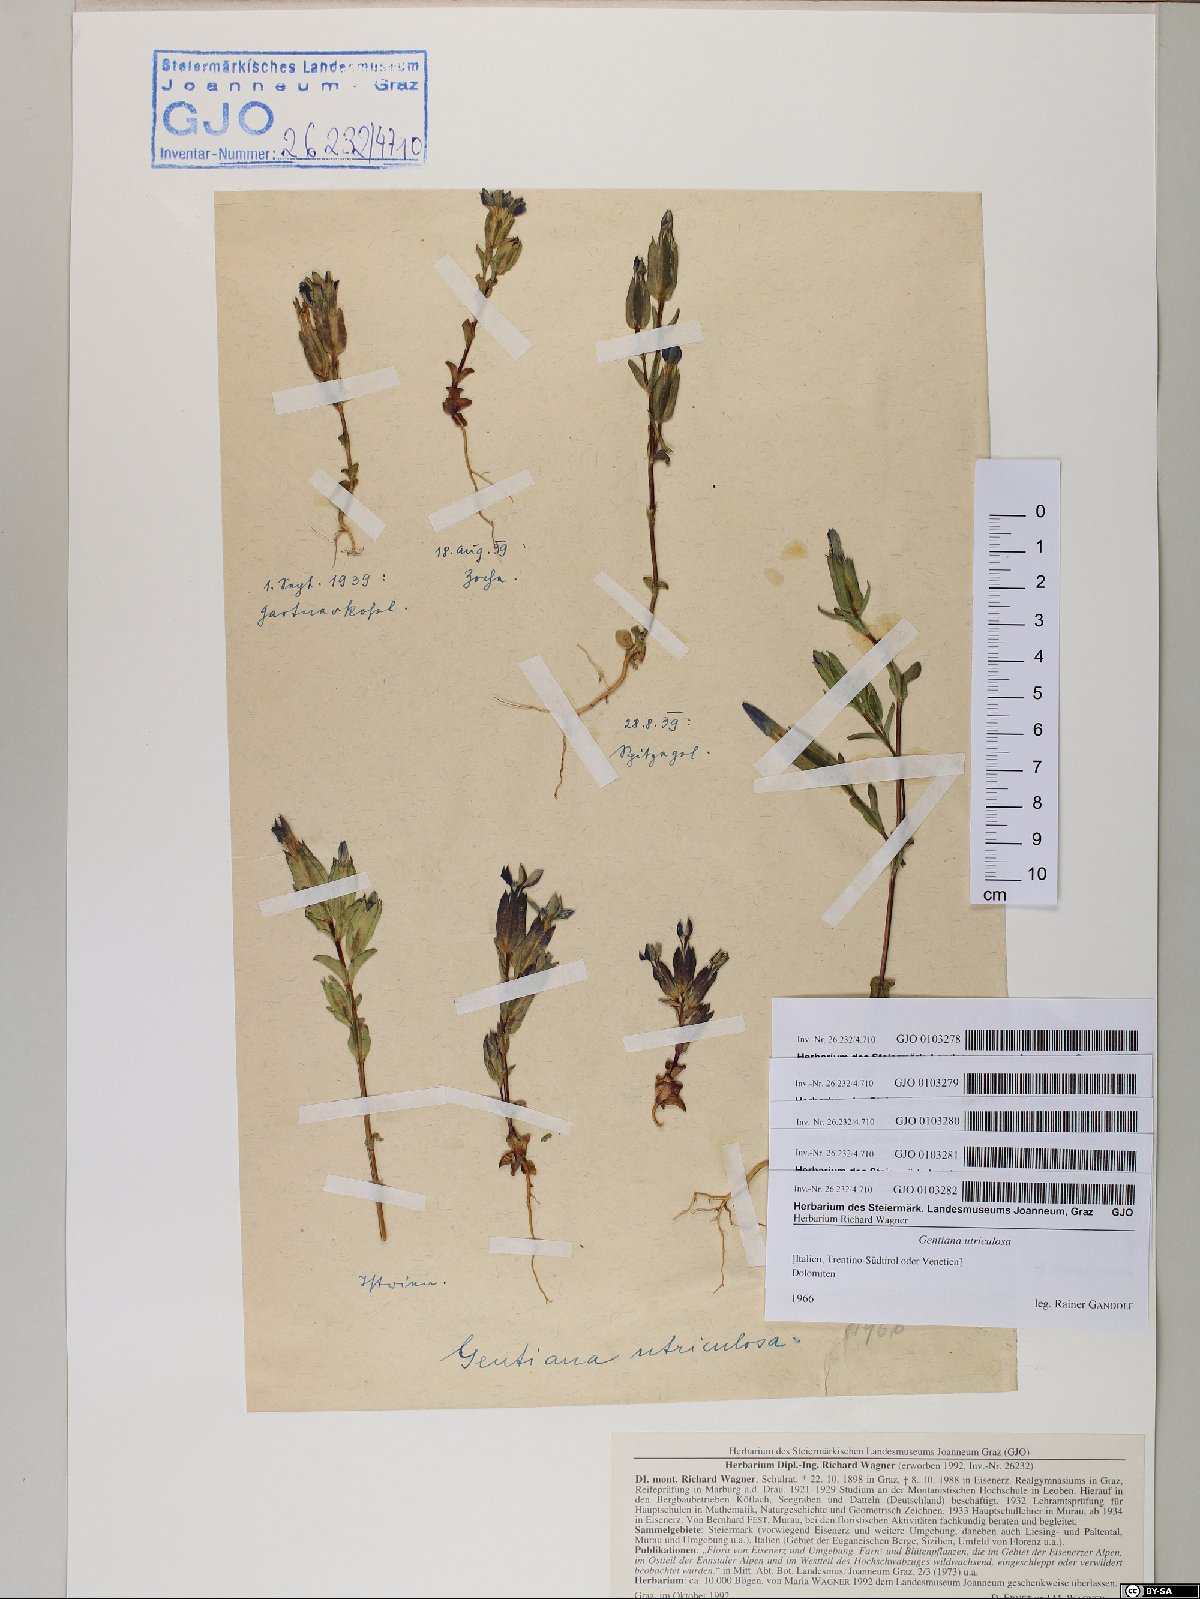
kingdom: Plantae
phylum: Tracheophyta
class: Magnoliopsida
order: Gentianales
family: Gentianaceae
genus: Gentiana
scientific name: Gentiana utriculosa
